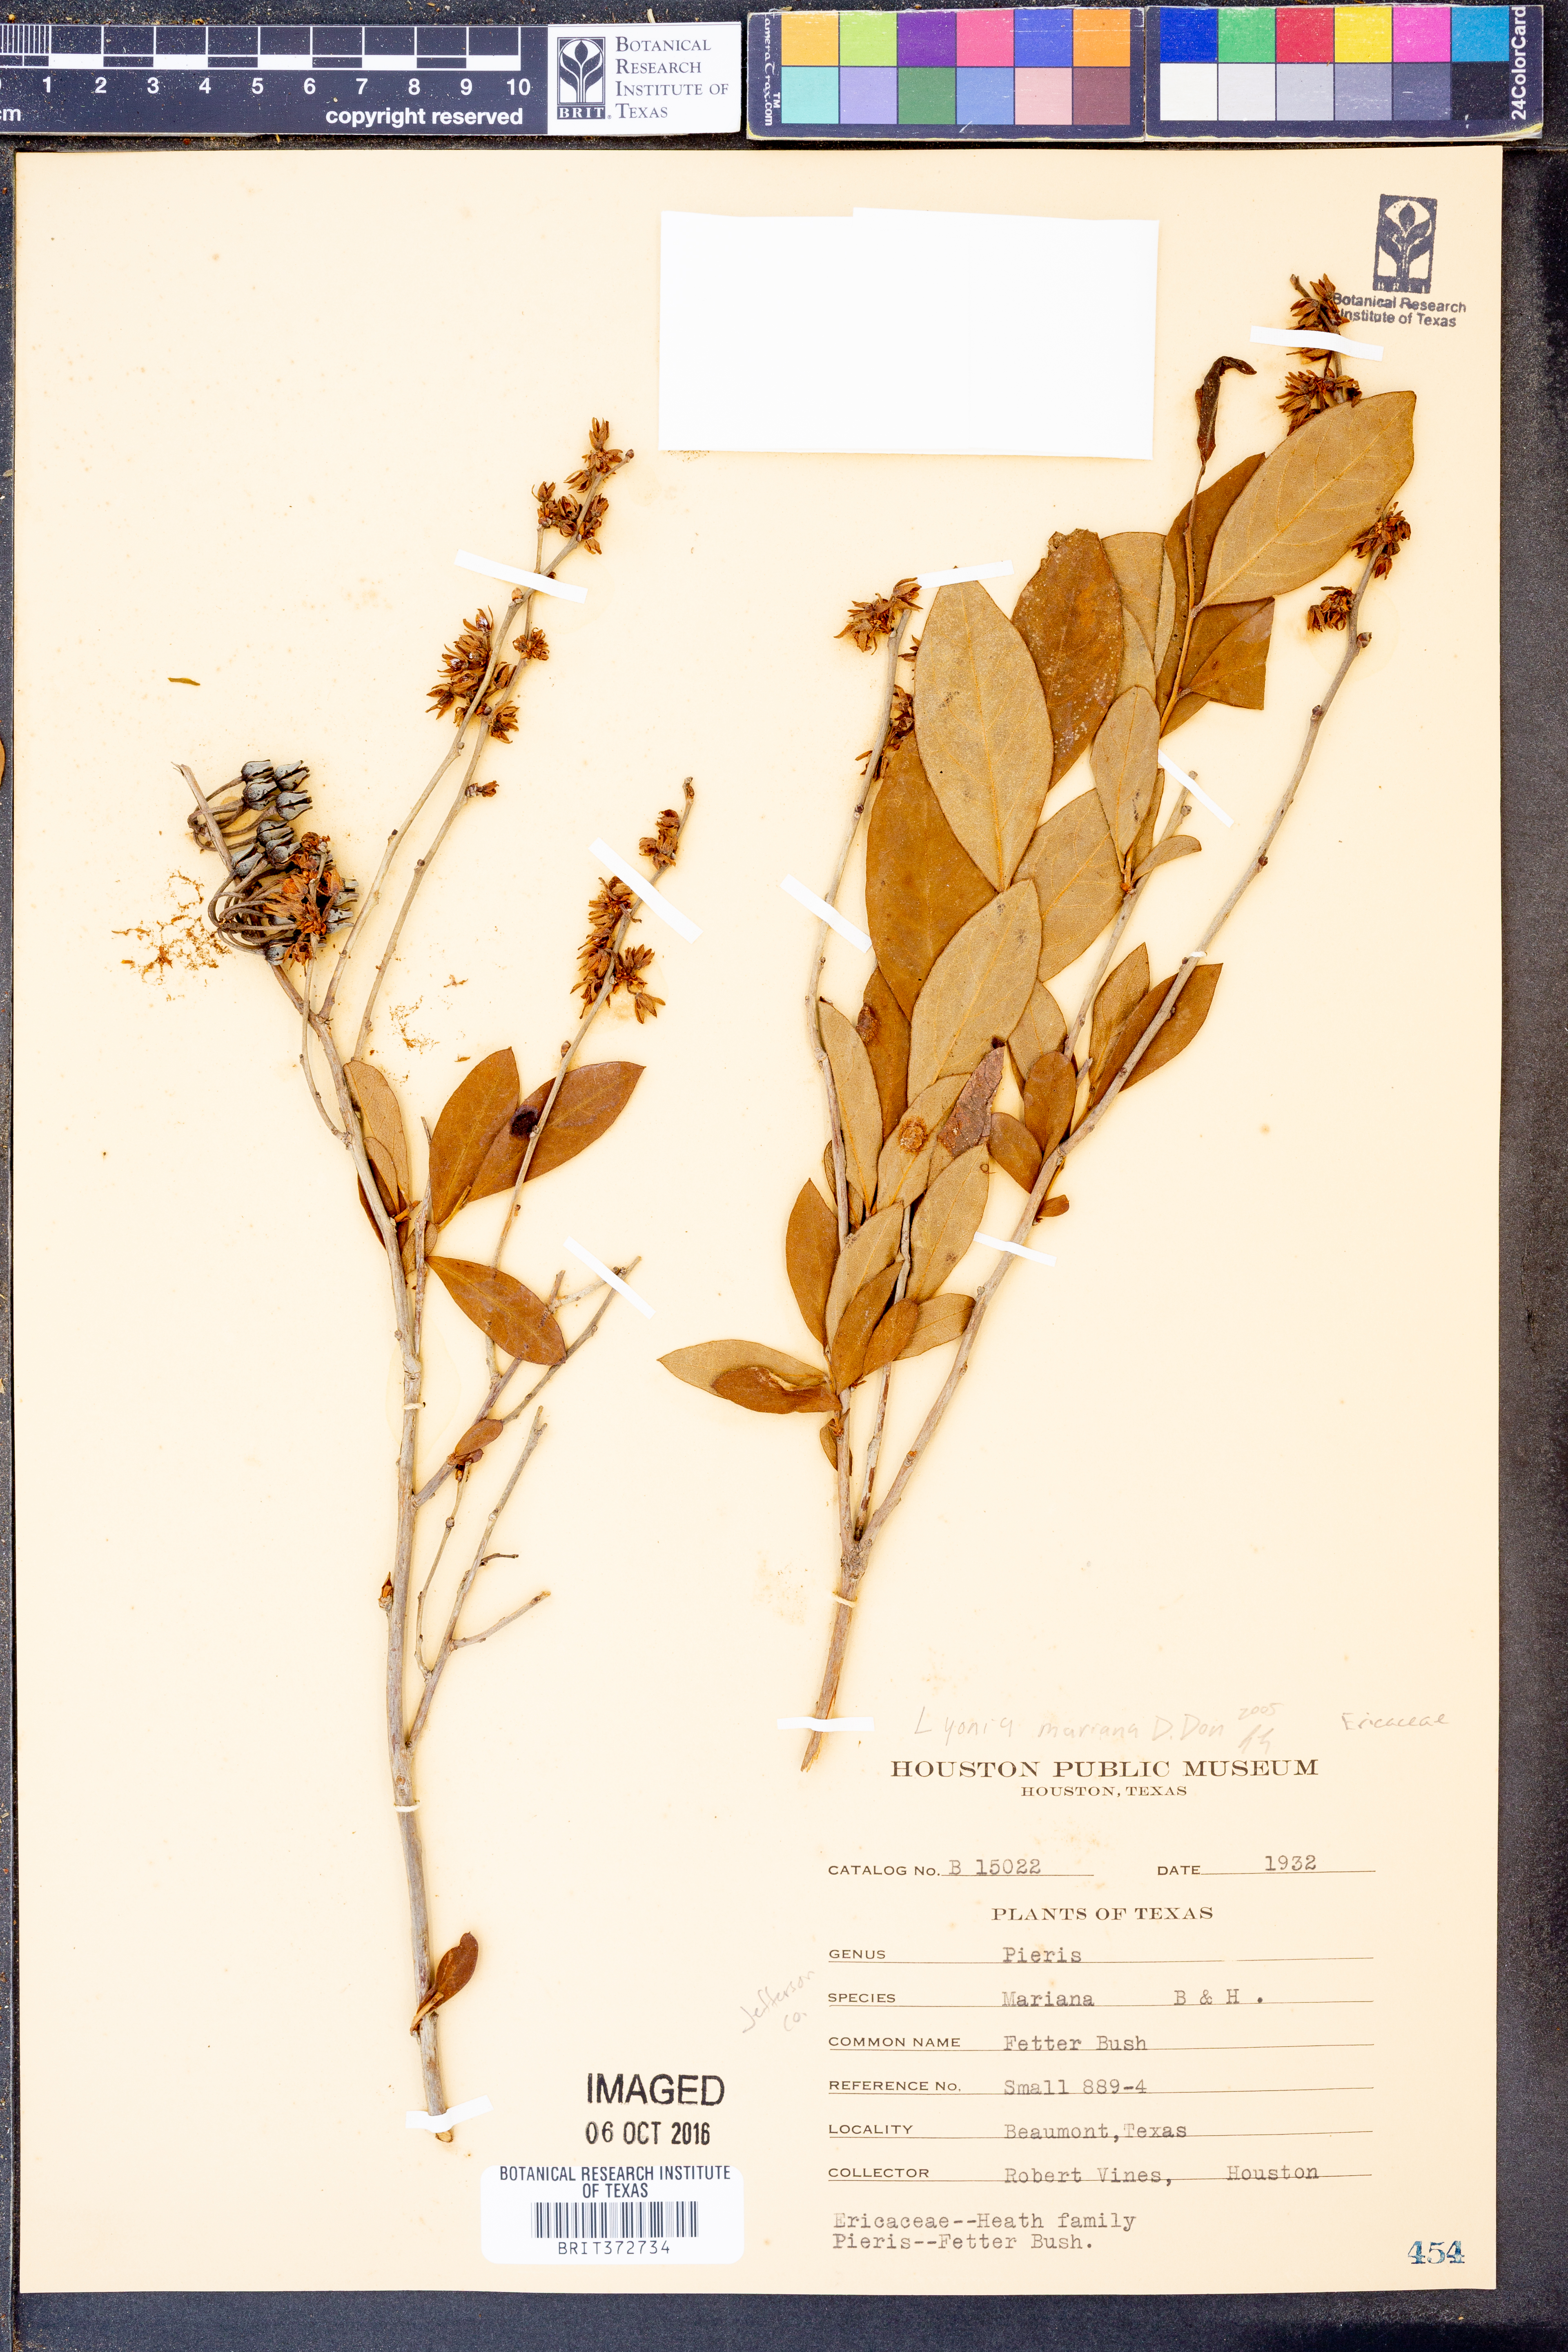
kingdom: Plantae
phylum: Tracheophyta
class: Magnoliopsida
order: Ericales
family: Ericaceae
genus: Lyonia
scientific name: Lyonia mariana
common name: Staggerbush
